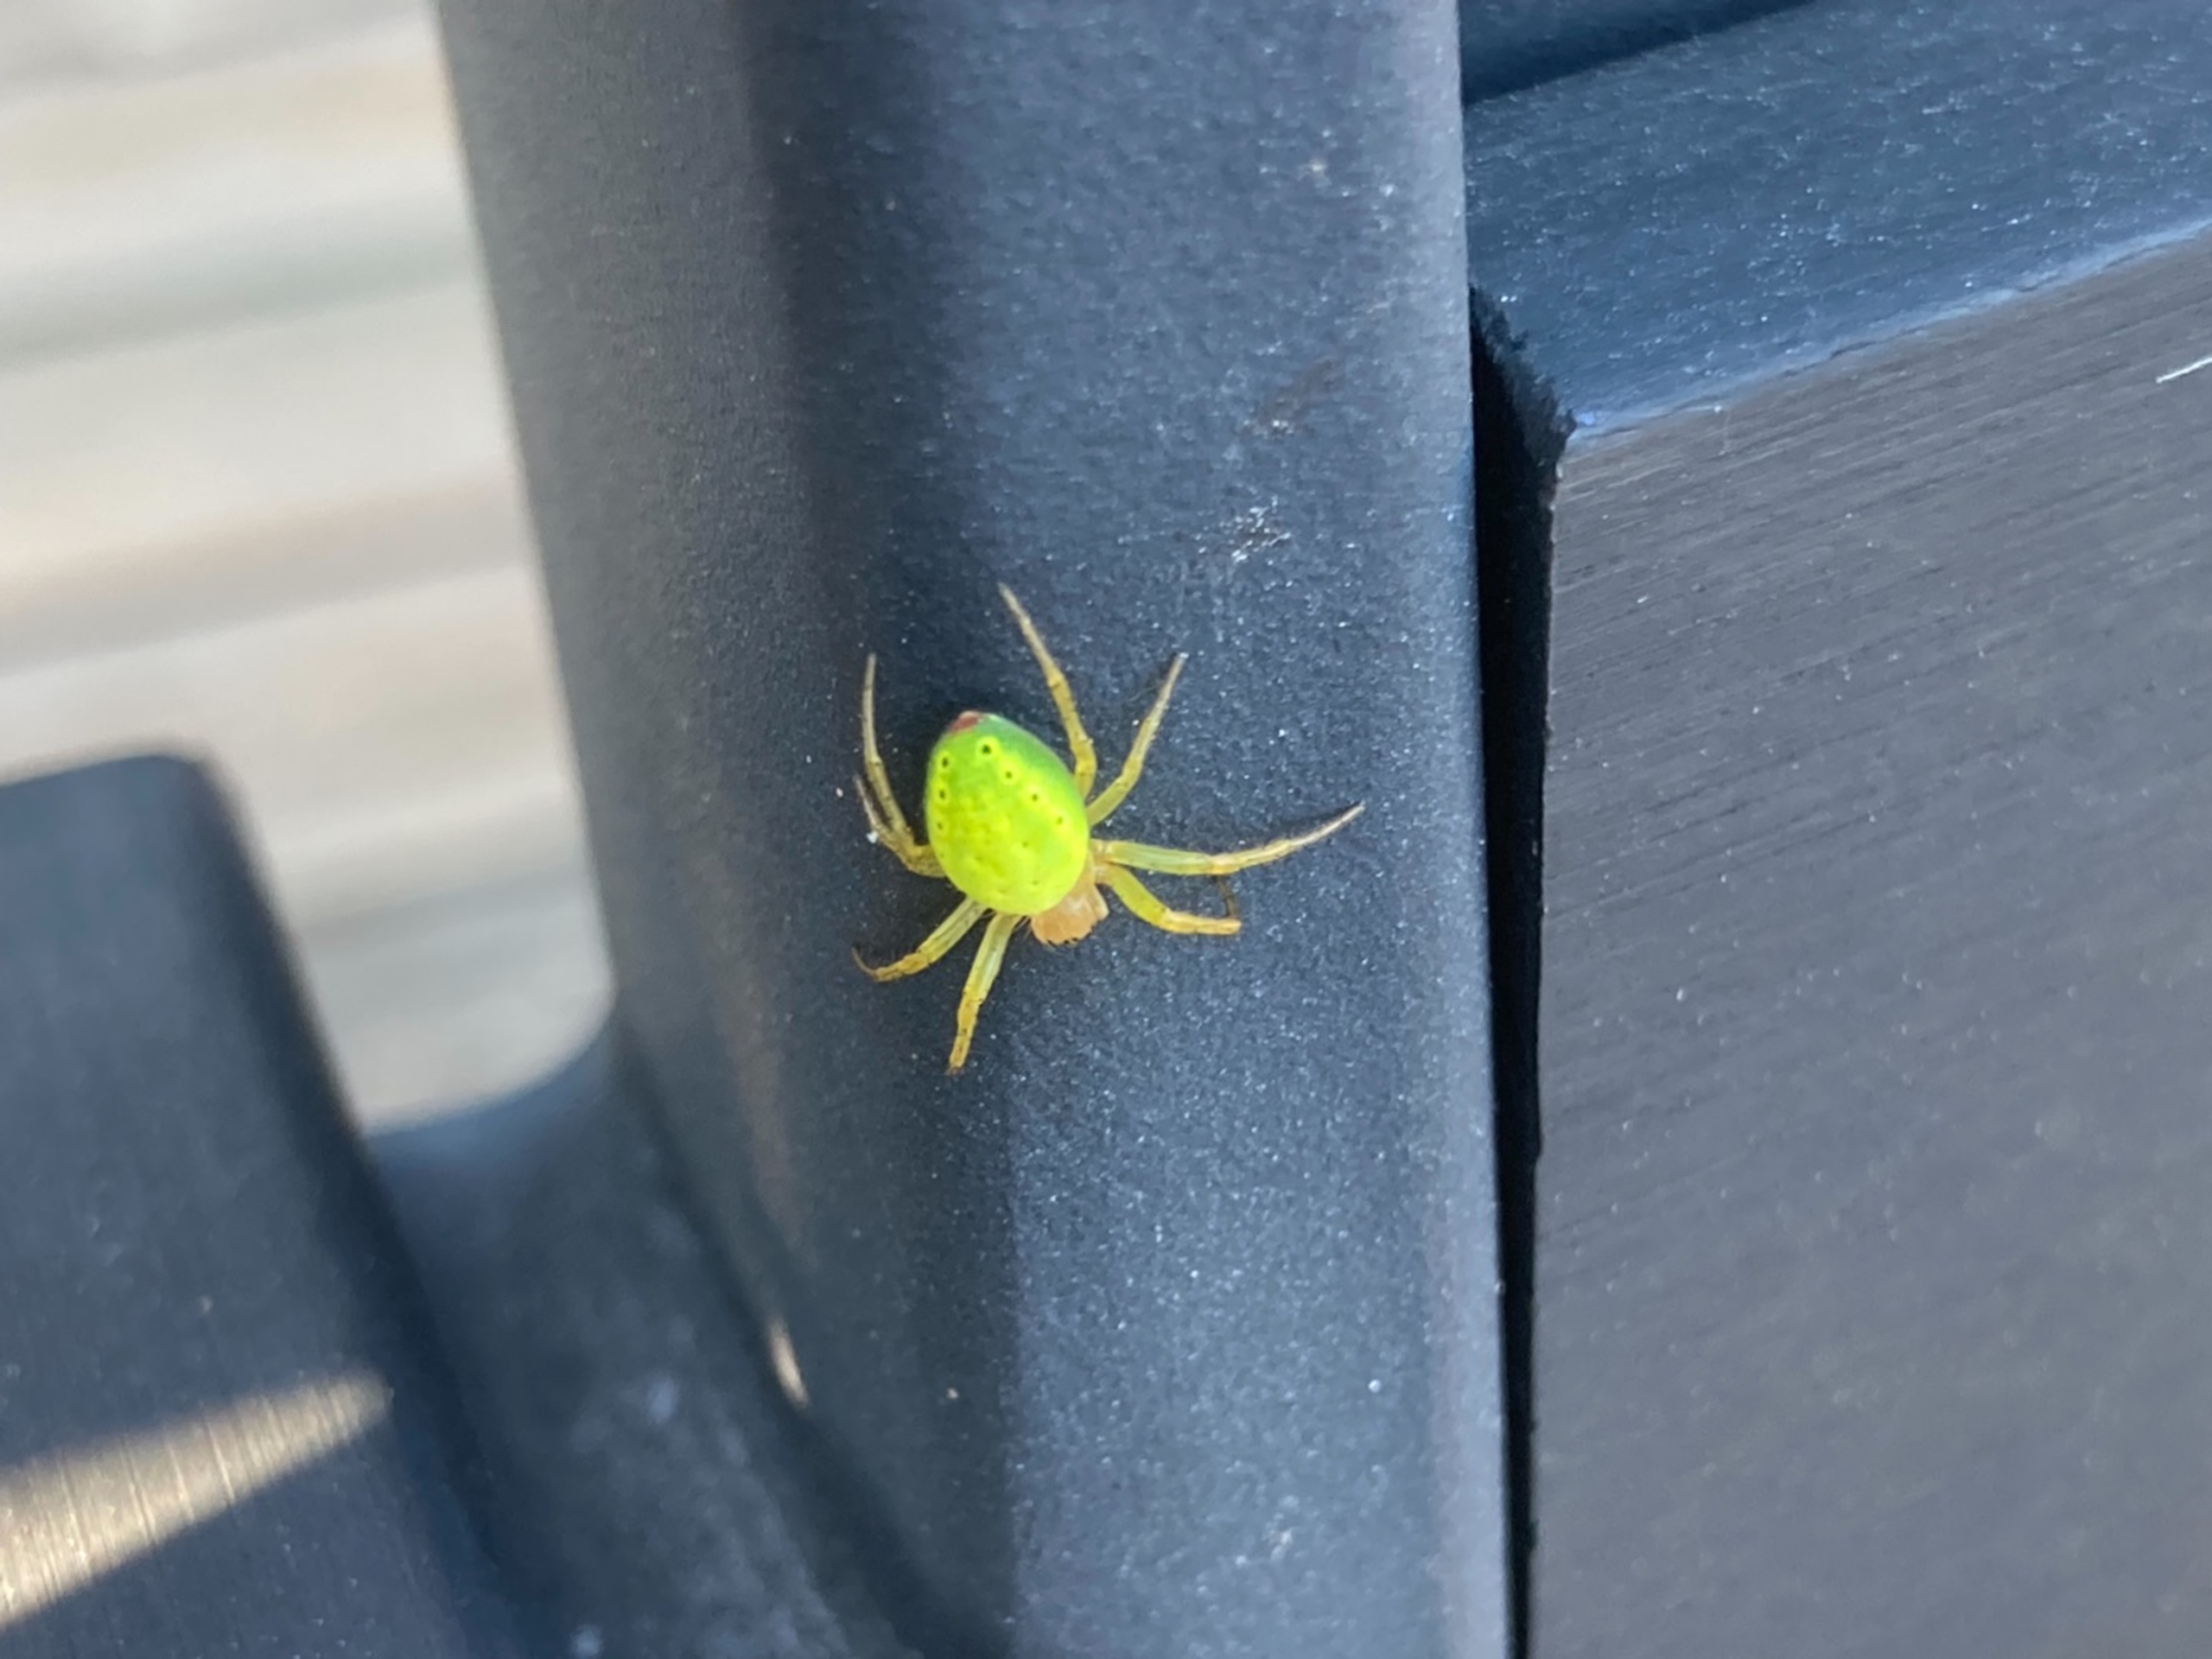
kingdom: Animalia
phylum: Arthropoda
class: Arachnida
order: Araneae
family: Araneidae
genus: Araniella
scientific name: Araniella
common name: Agurkeedderkopslægten
